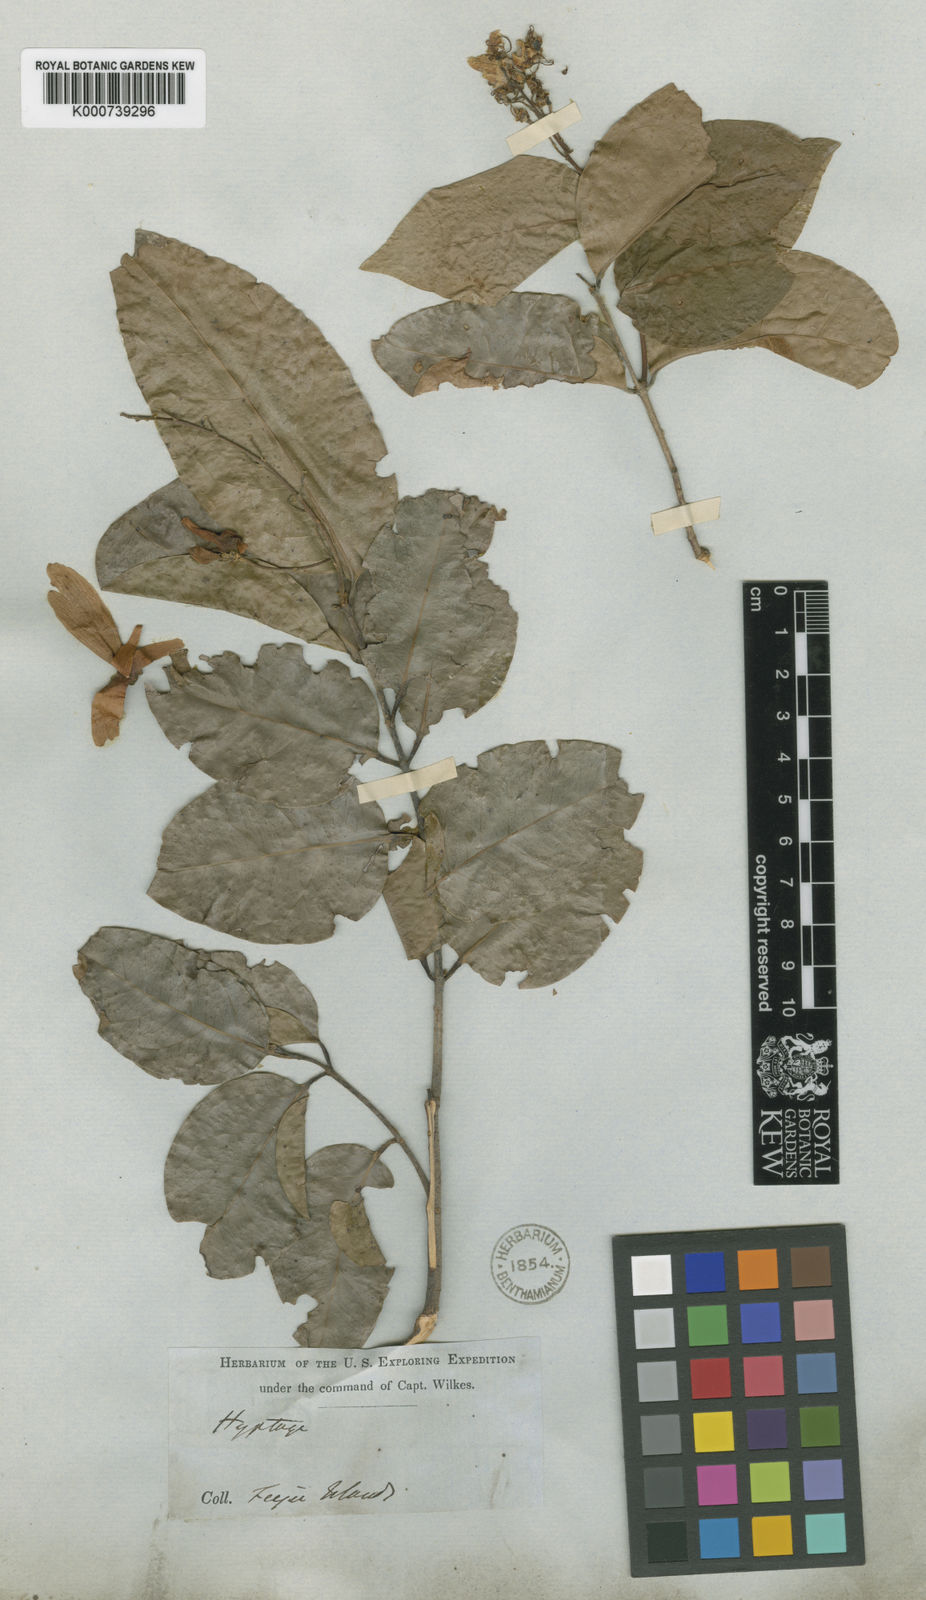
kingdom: Plantae
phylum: Tracheophyta
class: Magnoliopsida
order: Malpighiales
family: Malpighiaceae
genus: Hiptage
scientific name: Hiptage myrtifolia
